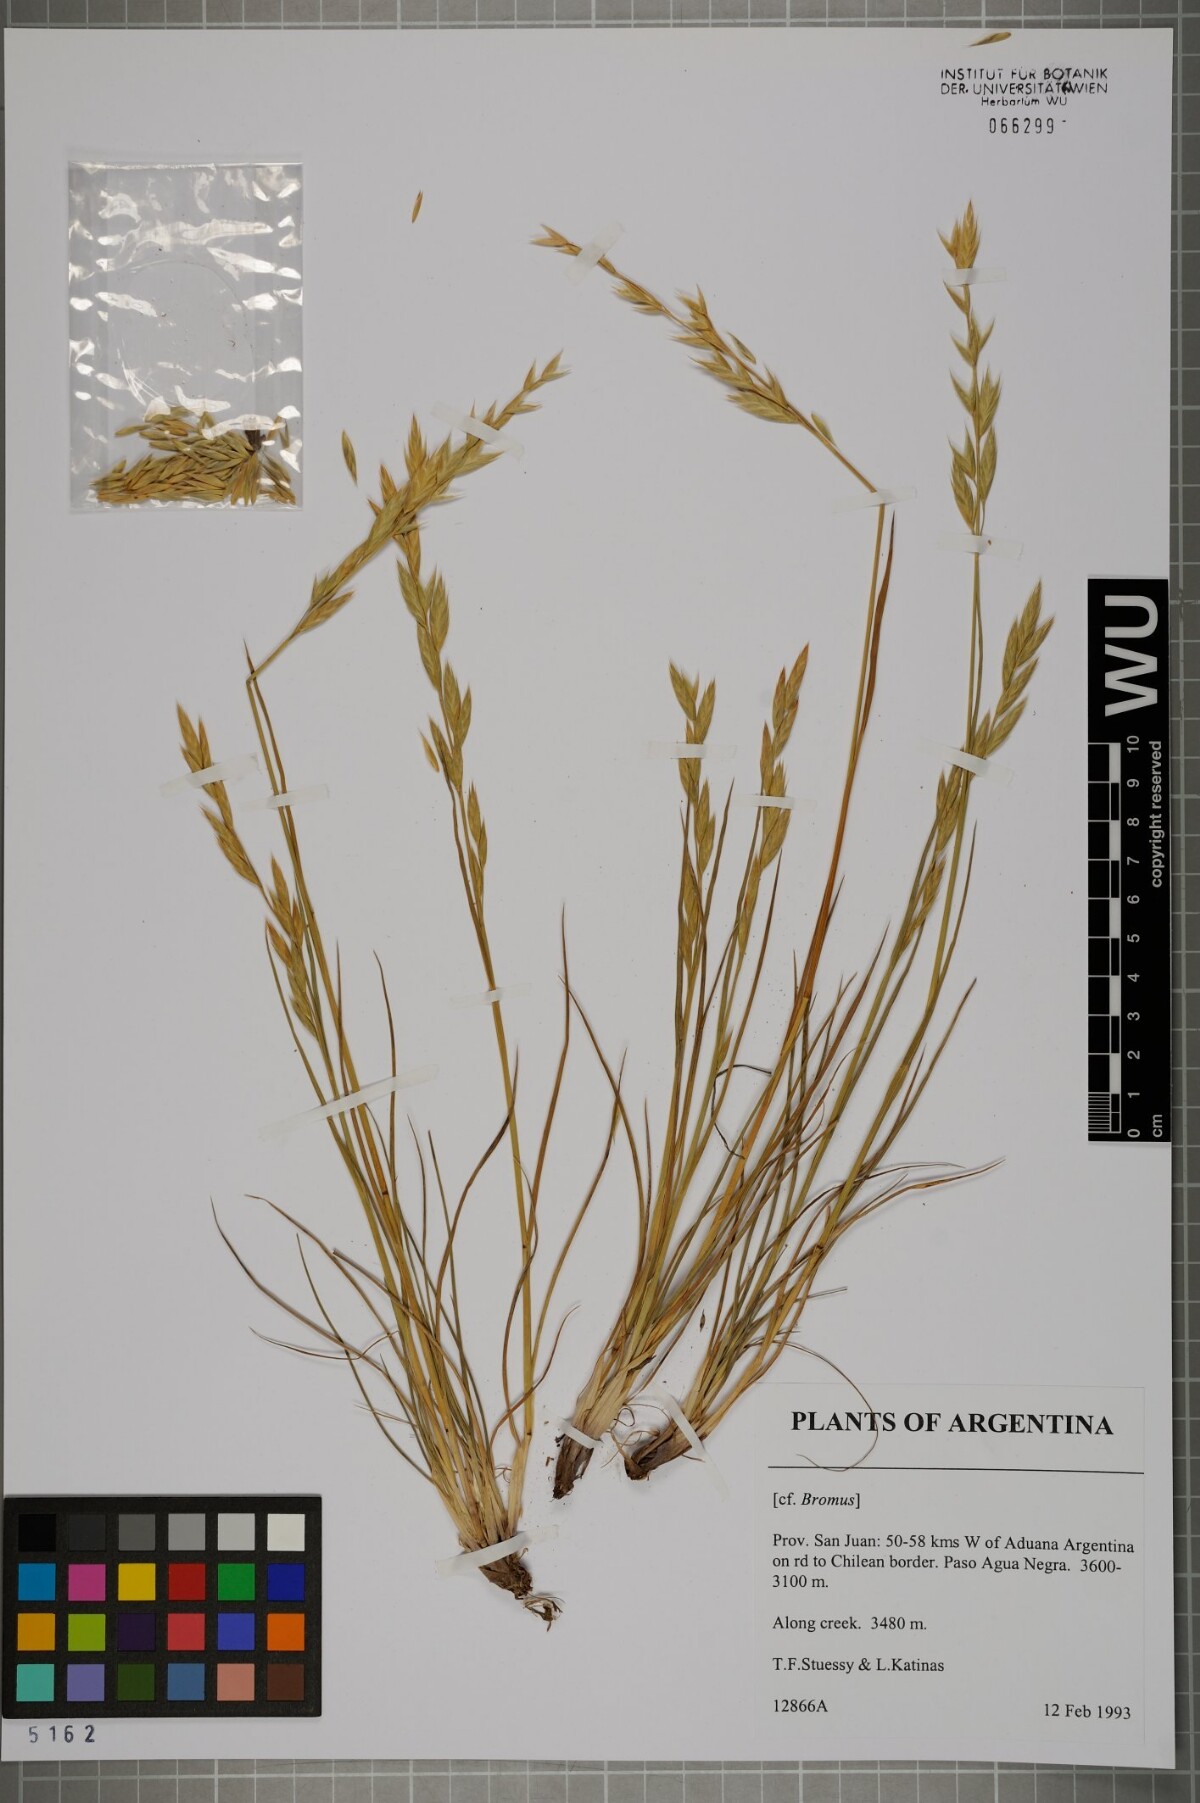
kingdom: Plantae
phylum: Tracheophyta
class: Liliopsida
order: Poales
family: Poaceae
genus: Bromus
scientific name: Bromus
